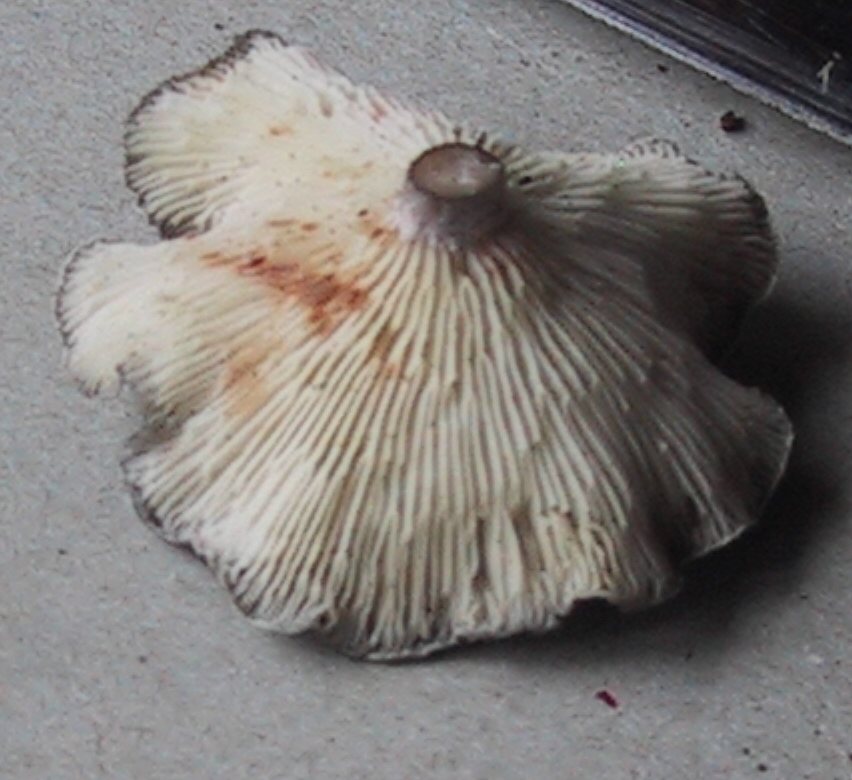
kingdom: Fungi
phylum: Basidiomycota
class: Agaricomycetes
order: Agaricales
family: Hygrophoraceae
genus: Cantharellula
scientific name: Cantharellula umbonata
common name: rødmende gaffelblad
